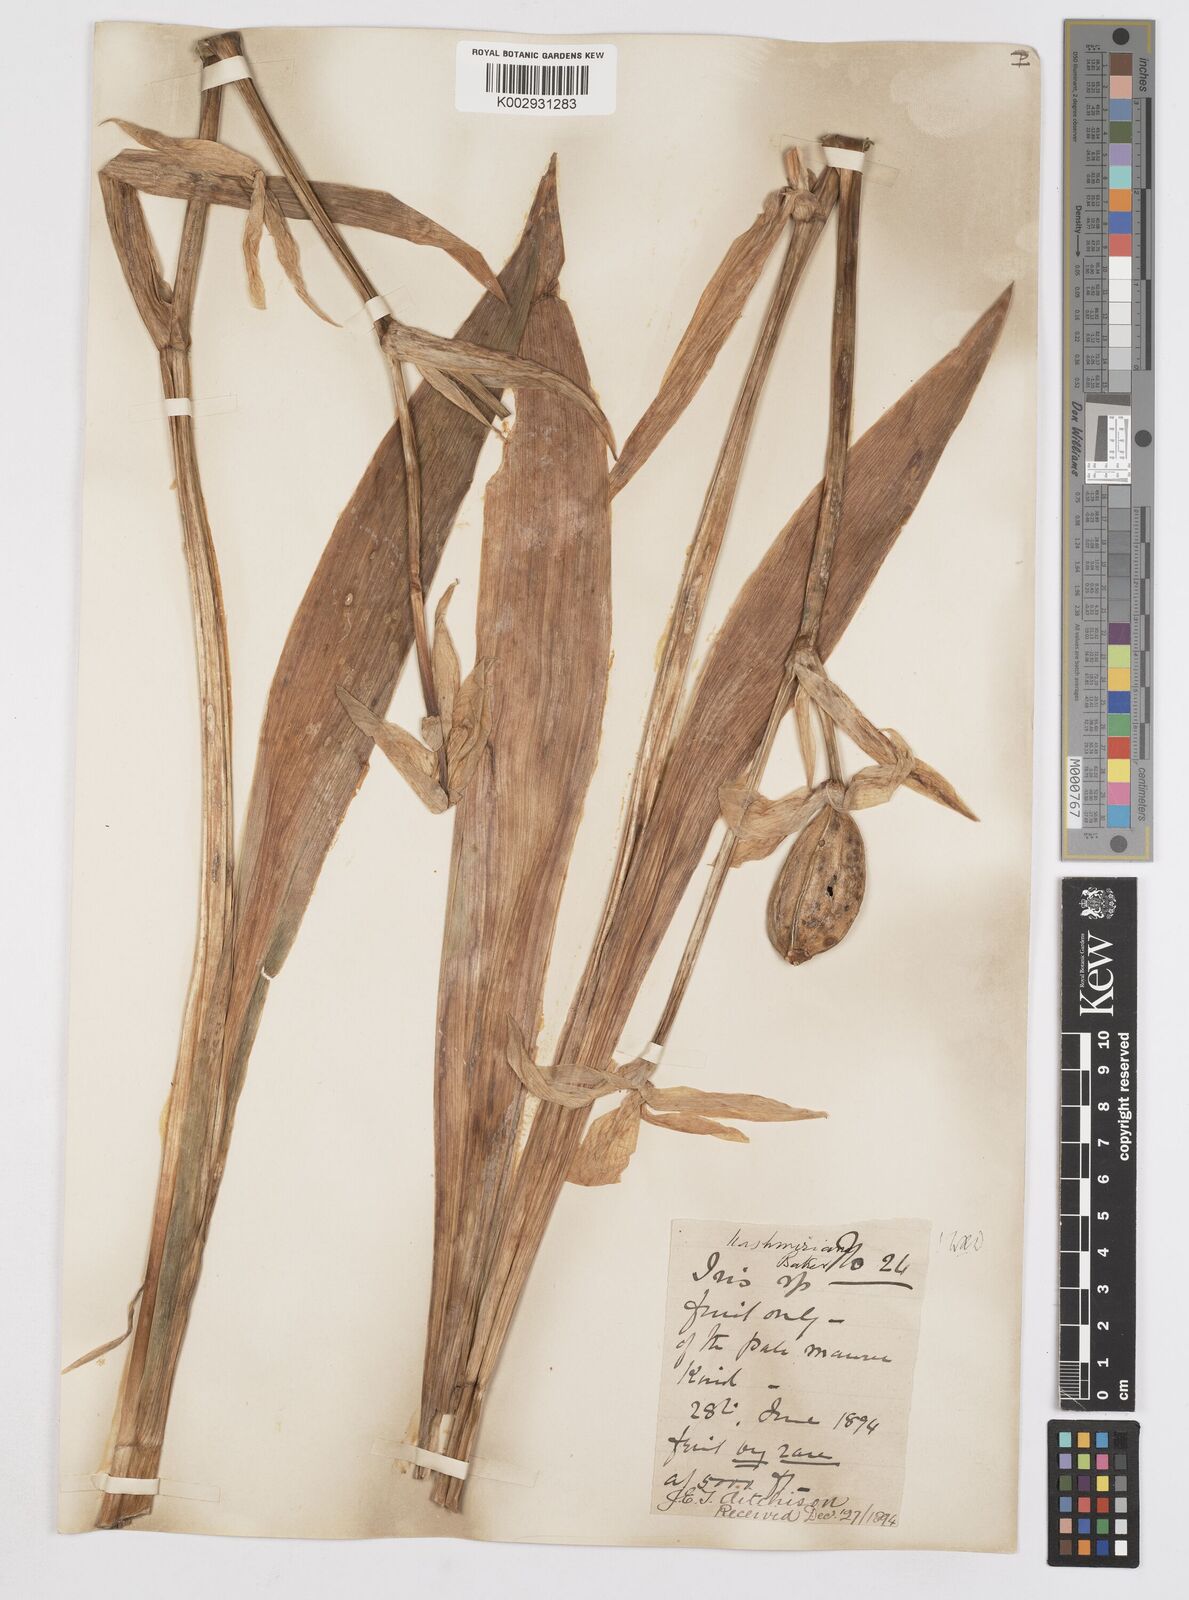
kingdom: Plantae
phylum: Tracheophyta
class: Liliopsida
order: Asparagales
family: Iridaceae
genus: Iris
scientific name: Iris kashmiriana
